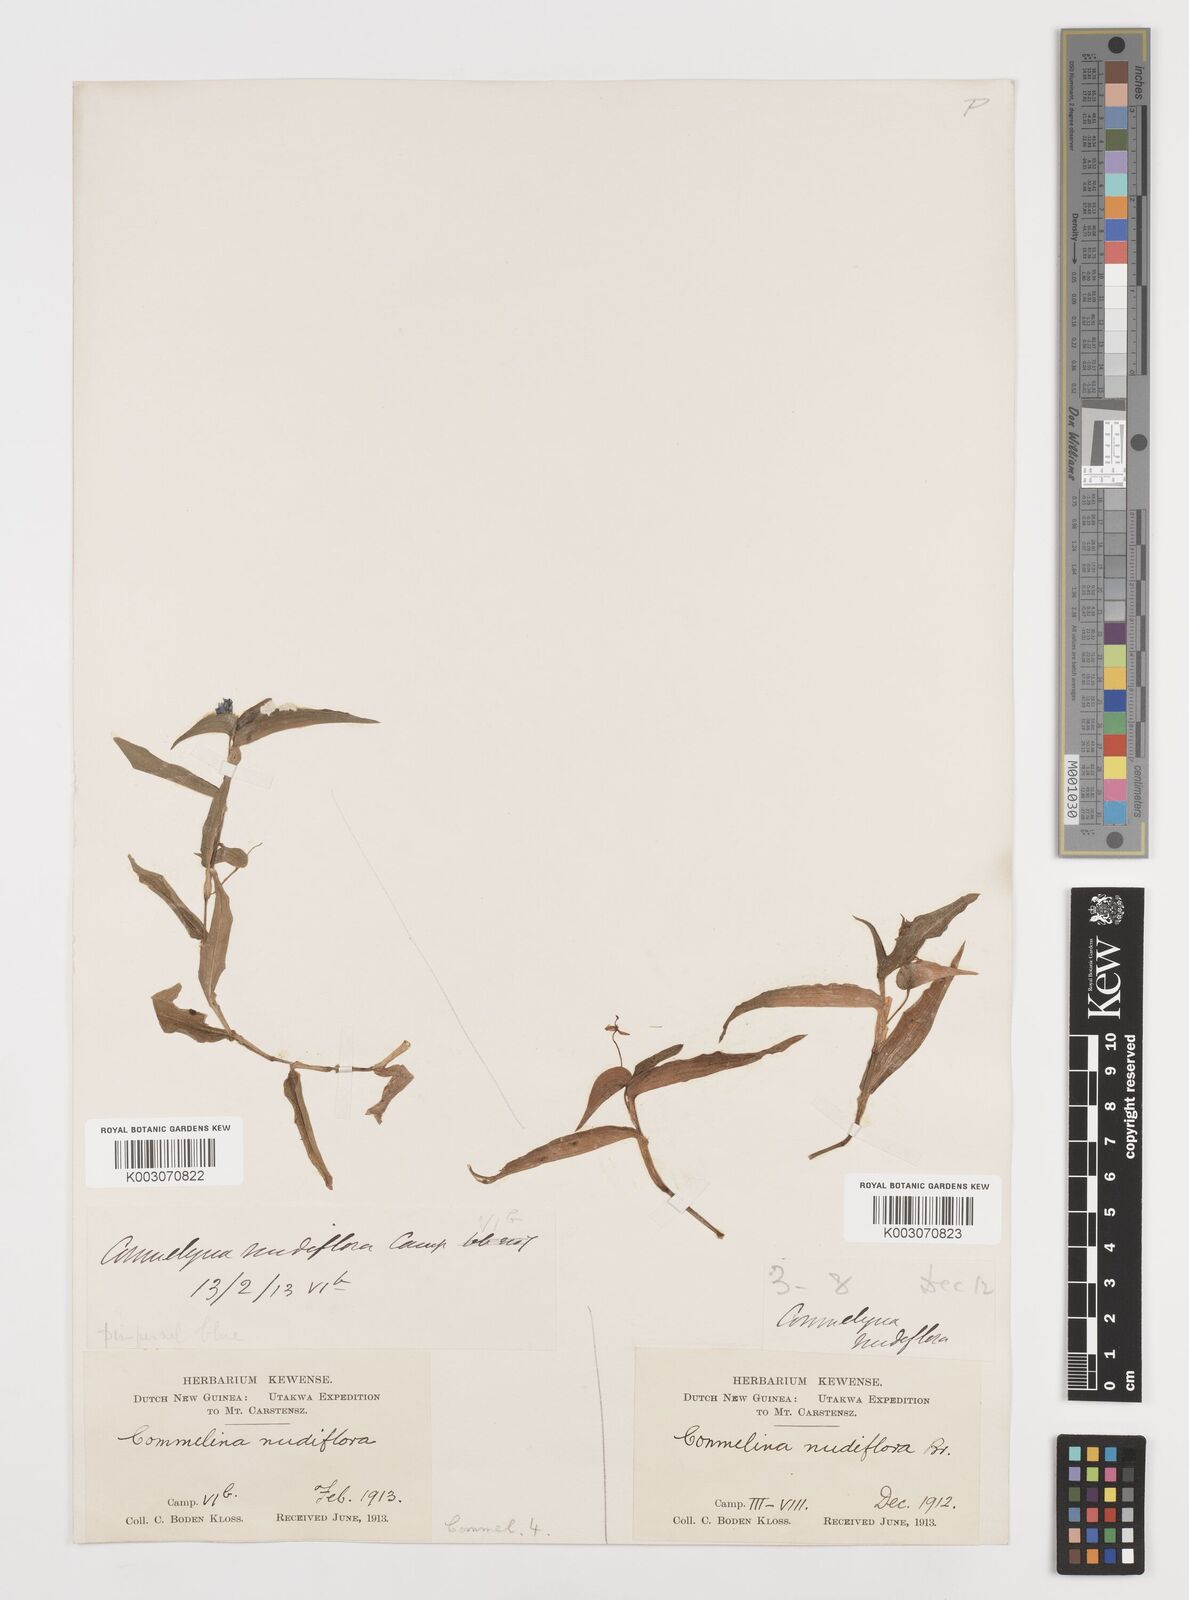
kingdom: Plantae
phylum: Tracheophyta
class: Liliopsida
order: Commelinales
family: Commelinaceae
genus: Murdannia
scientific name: Murdannia nudiflora
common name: Nakedstem dewflower
